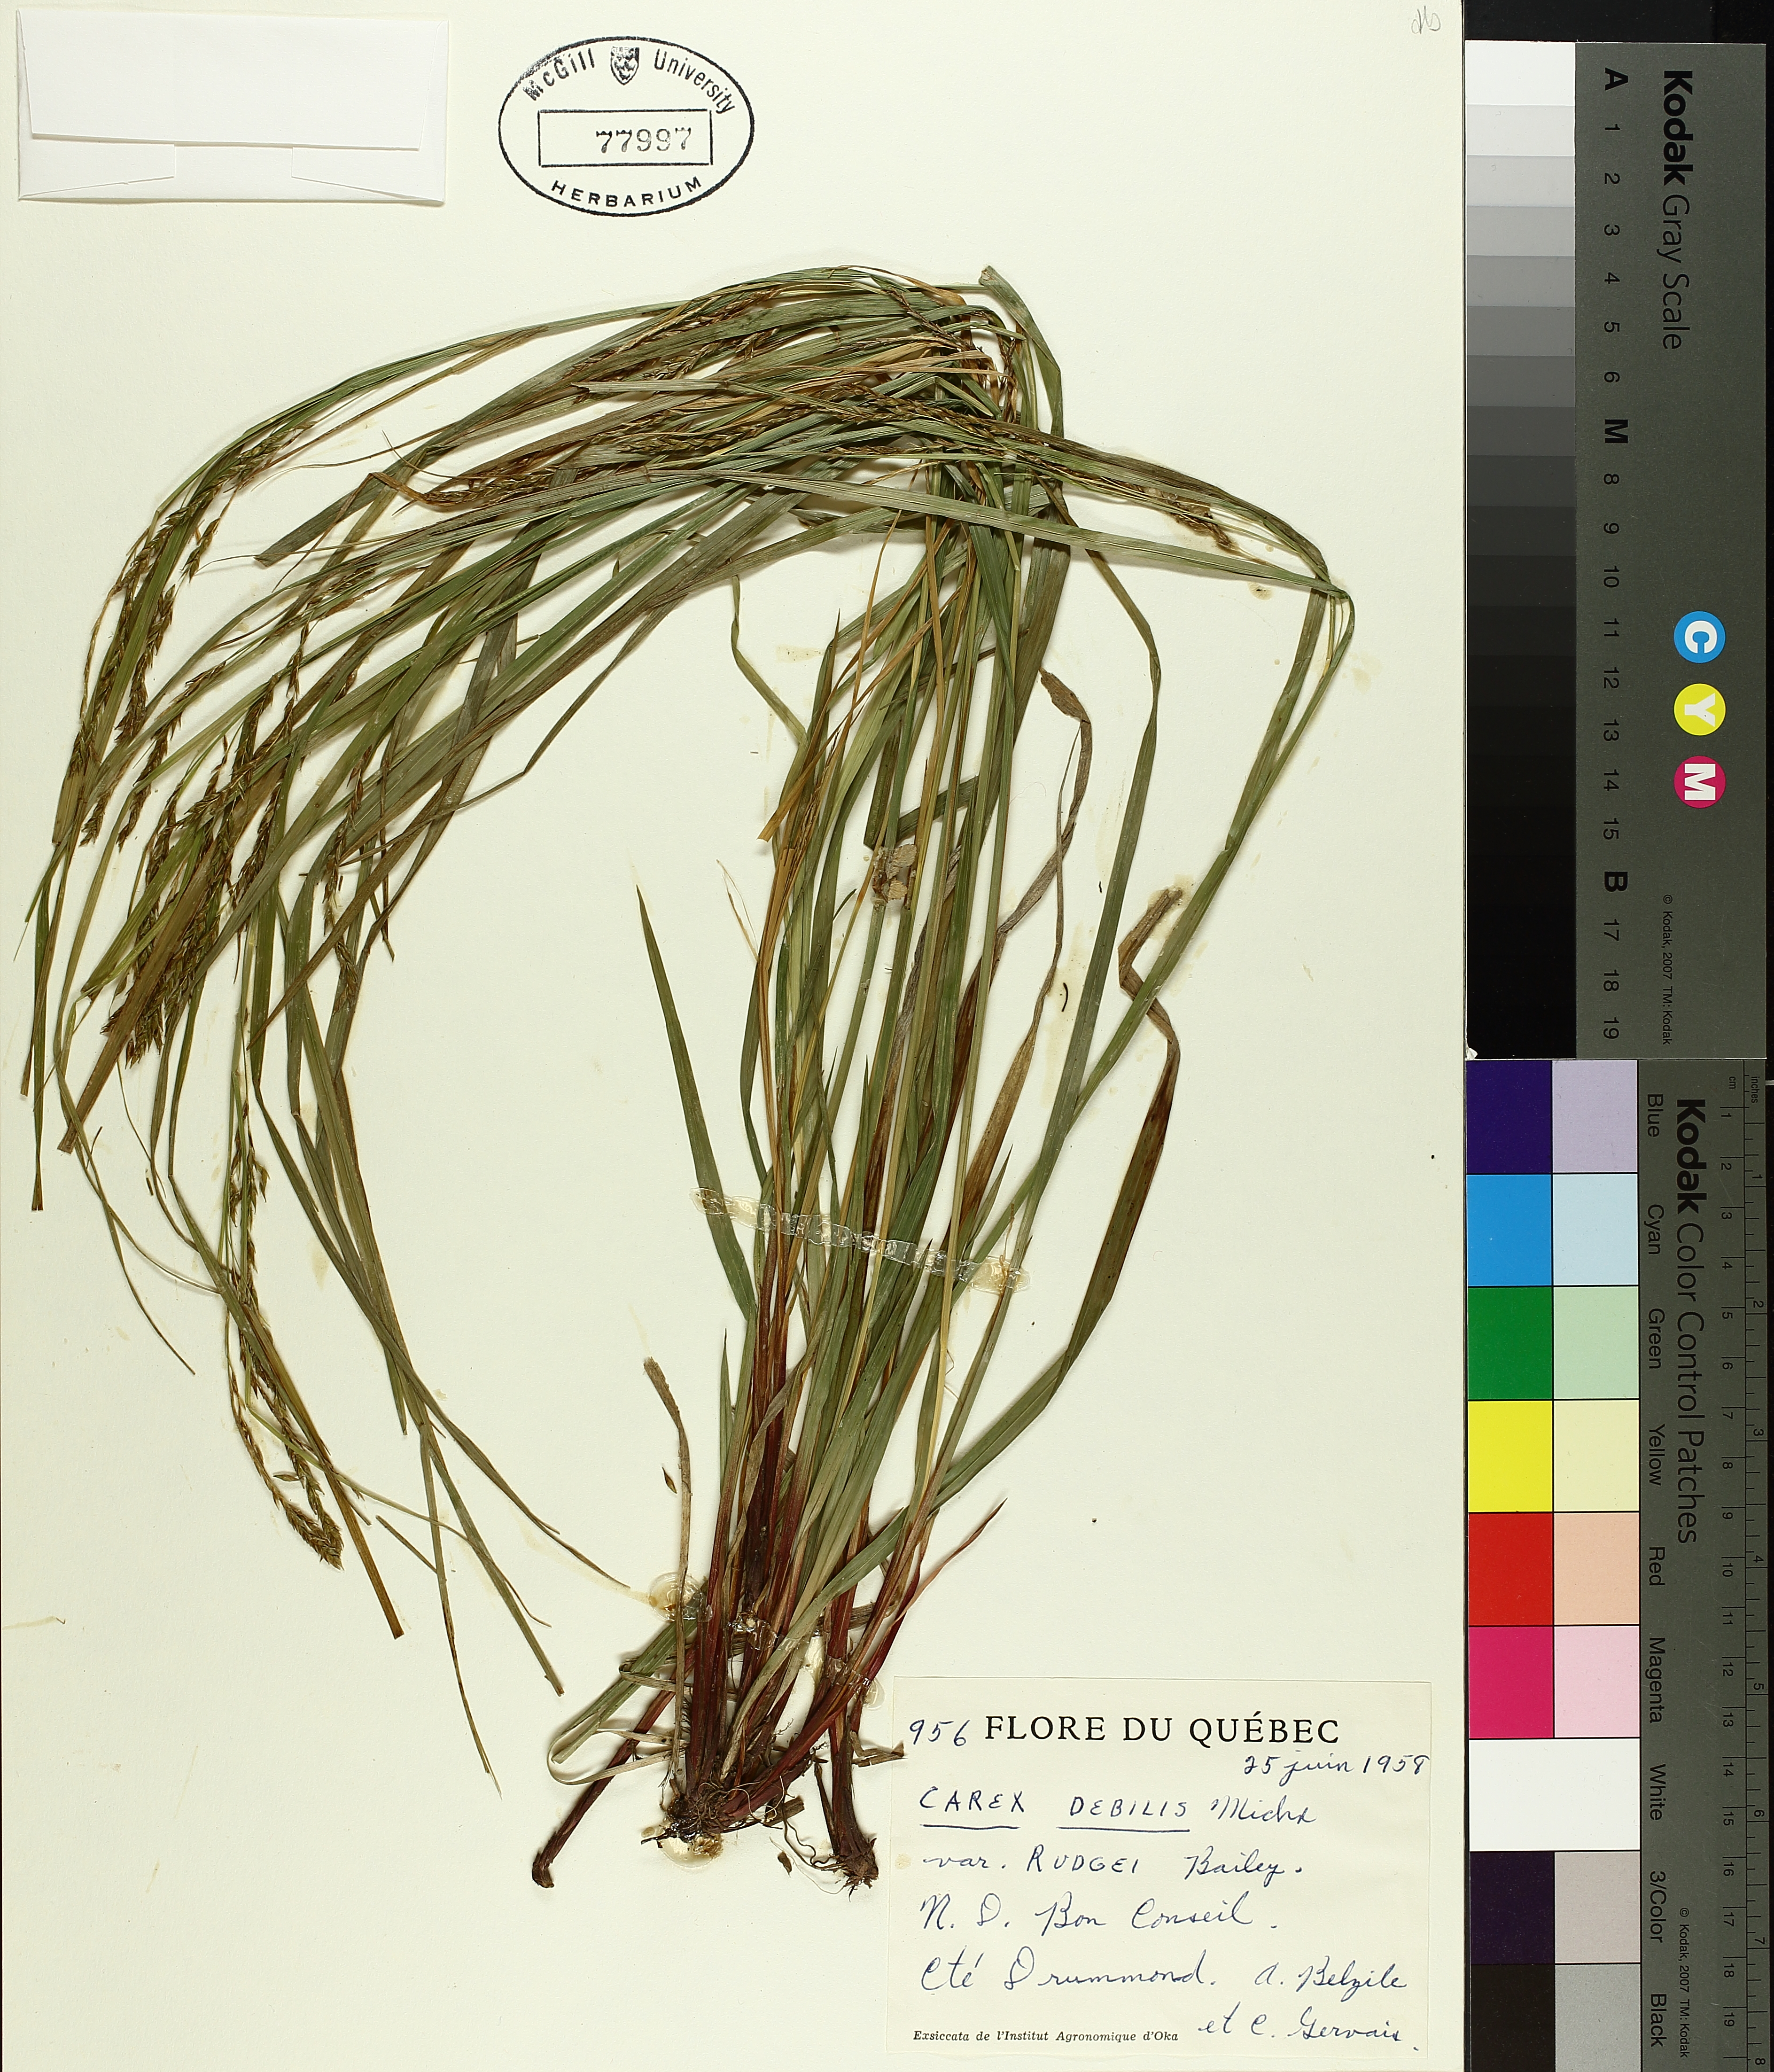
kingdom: Plantae
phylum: Tracheophyta
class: Liliopsida
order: Poales
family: Cyperaceae
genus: Carex
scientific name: Carex debilis
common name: White-edge sedge
